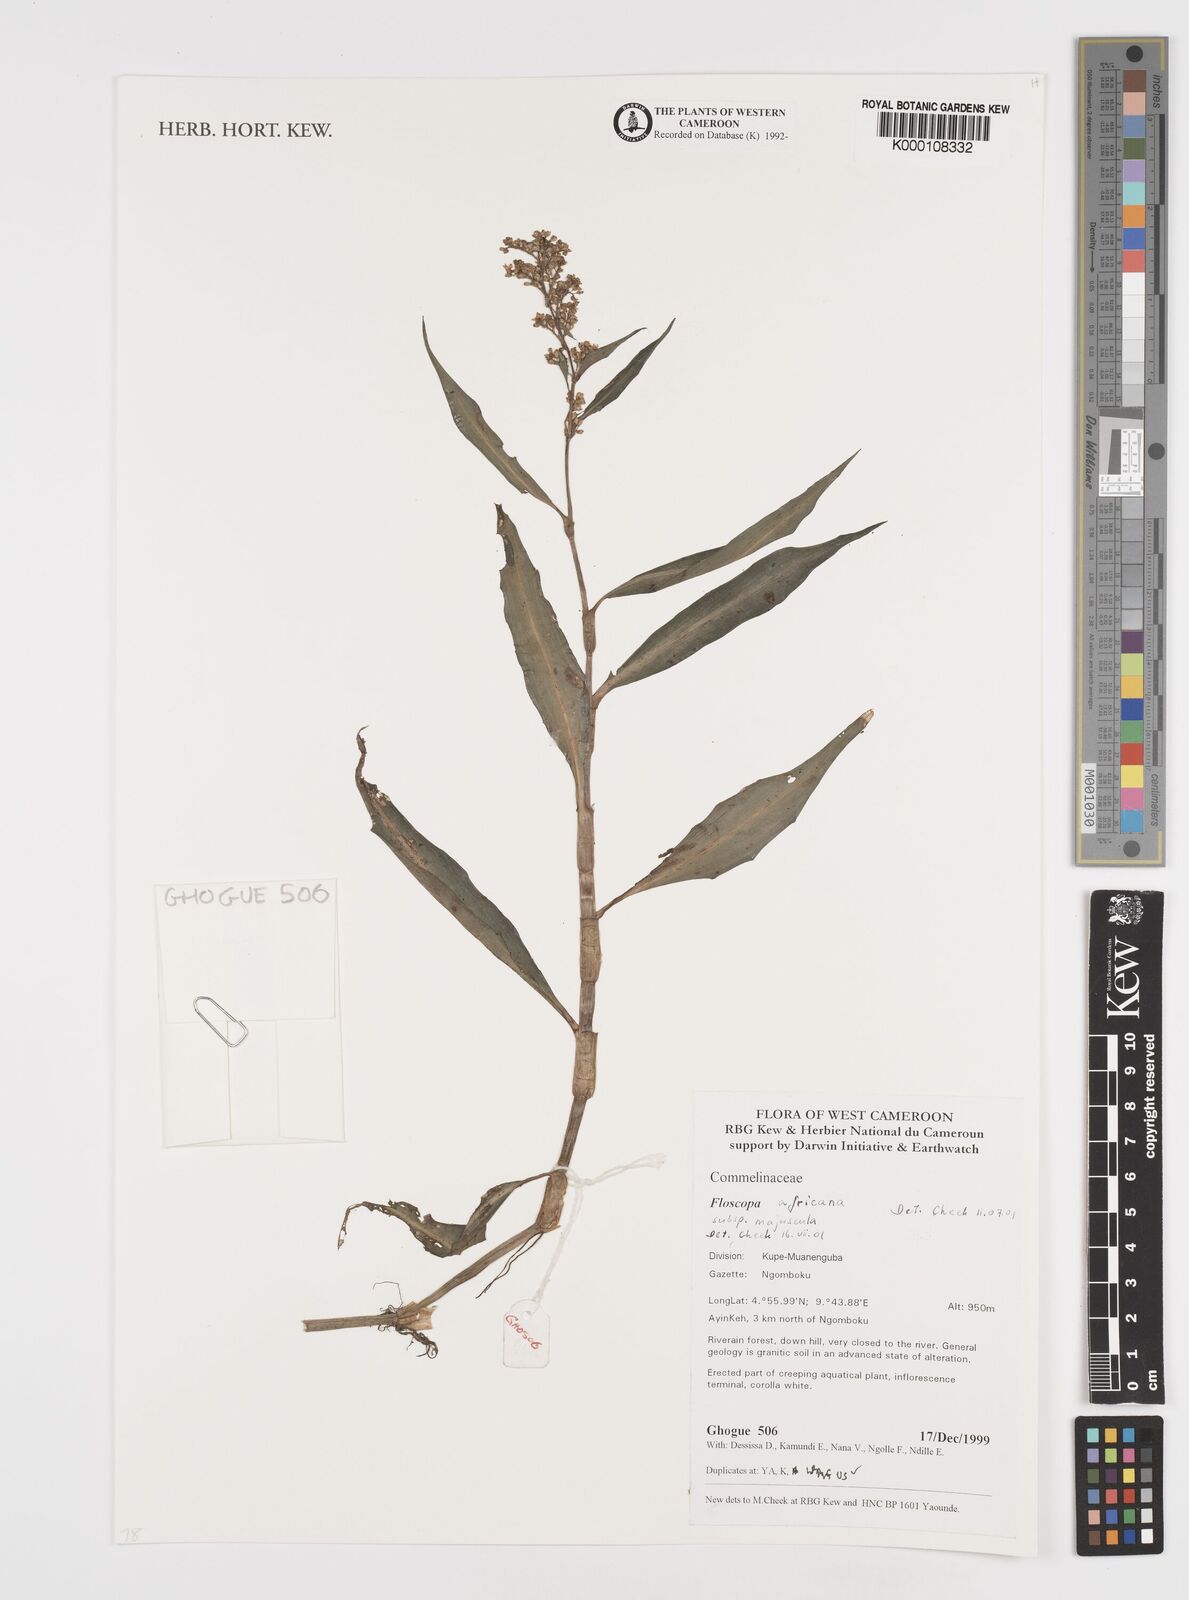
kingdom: Plantae
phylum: Tracheophyta
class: Liliopsida
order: Commelinales
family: Commelinaceae
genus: Floscopa
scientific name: Floscopa africana
